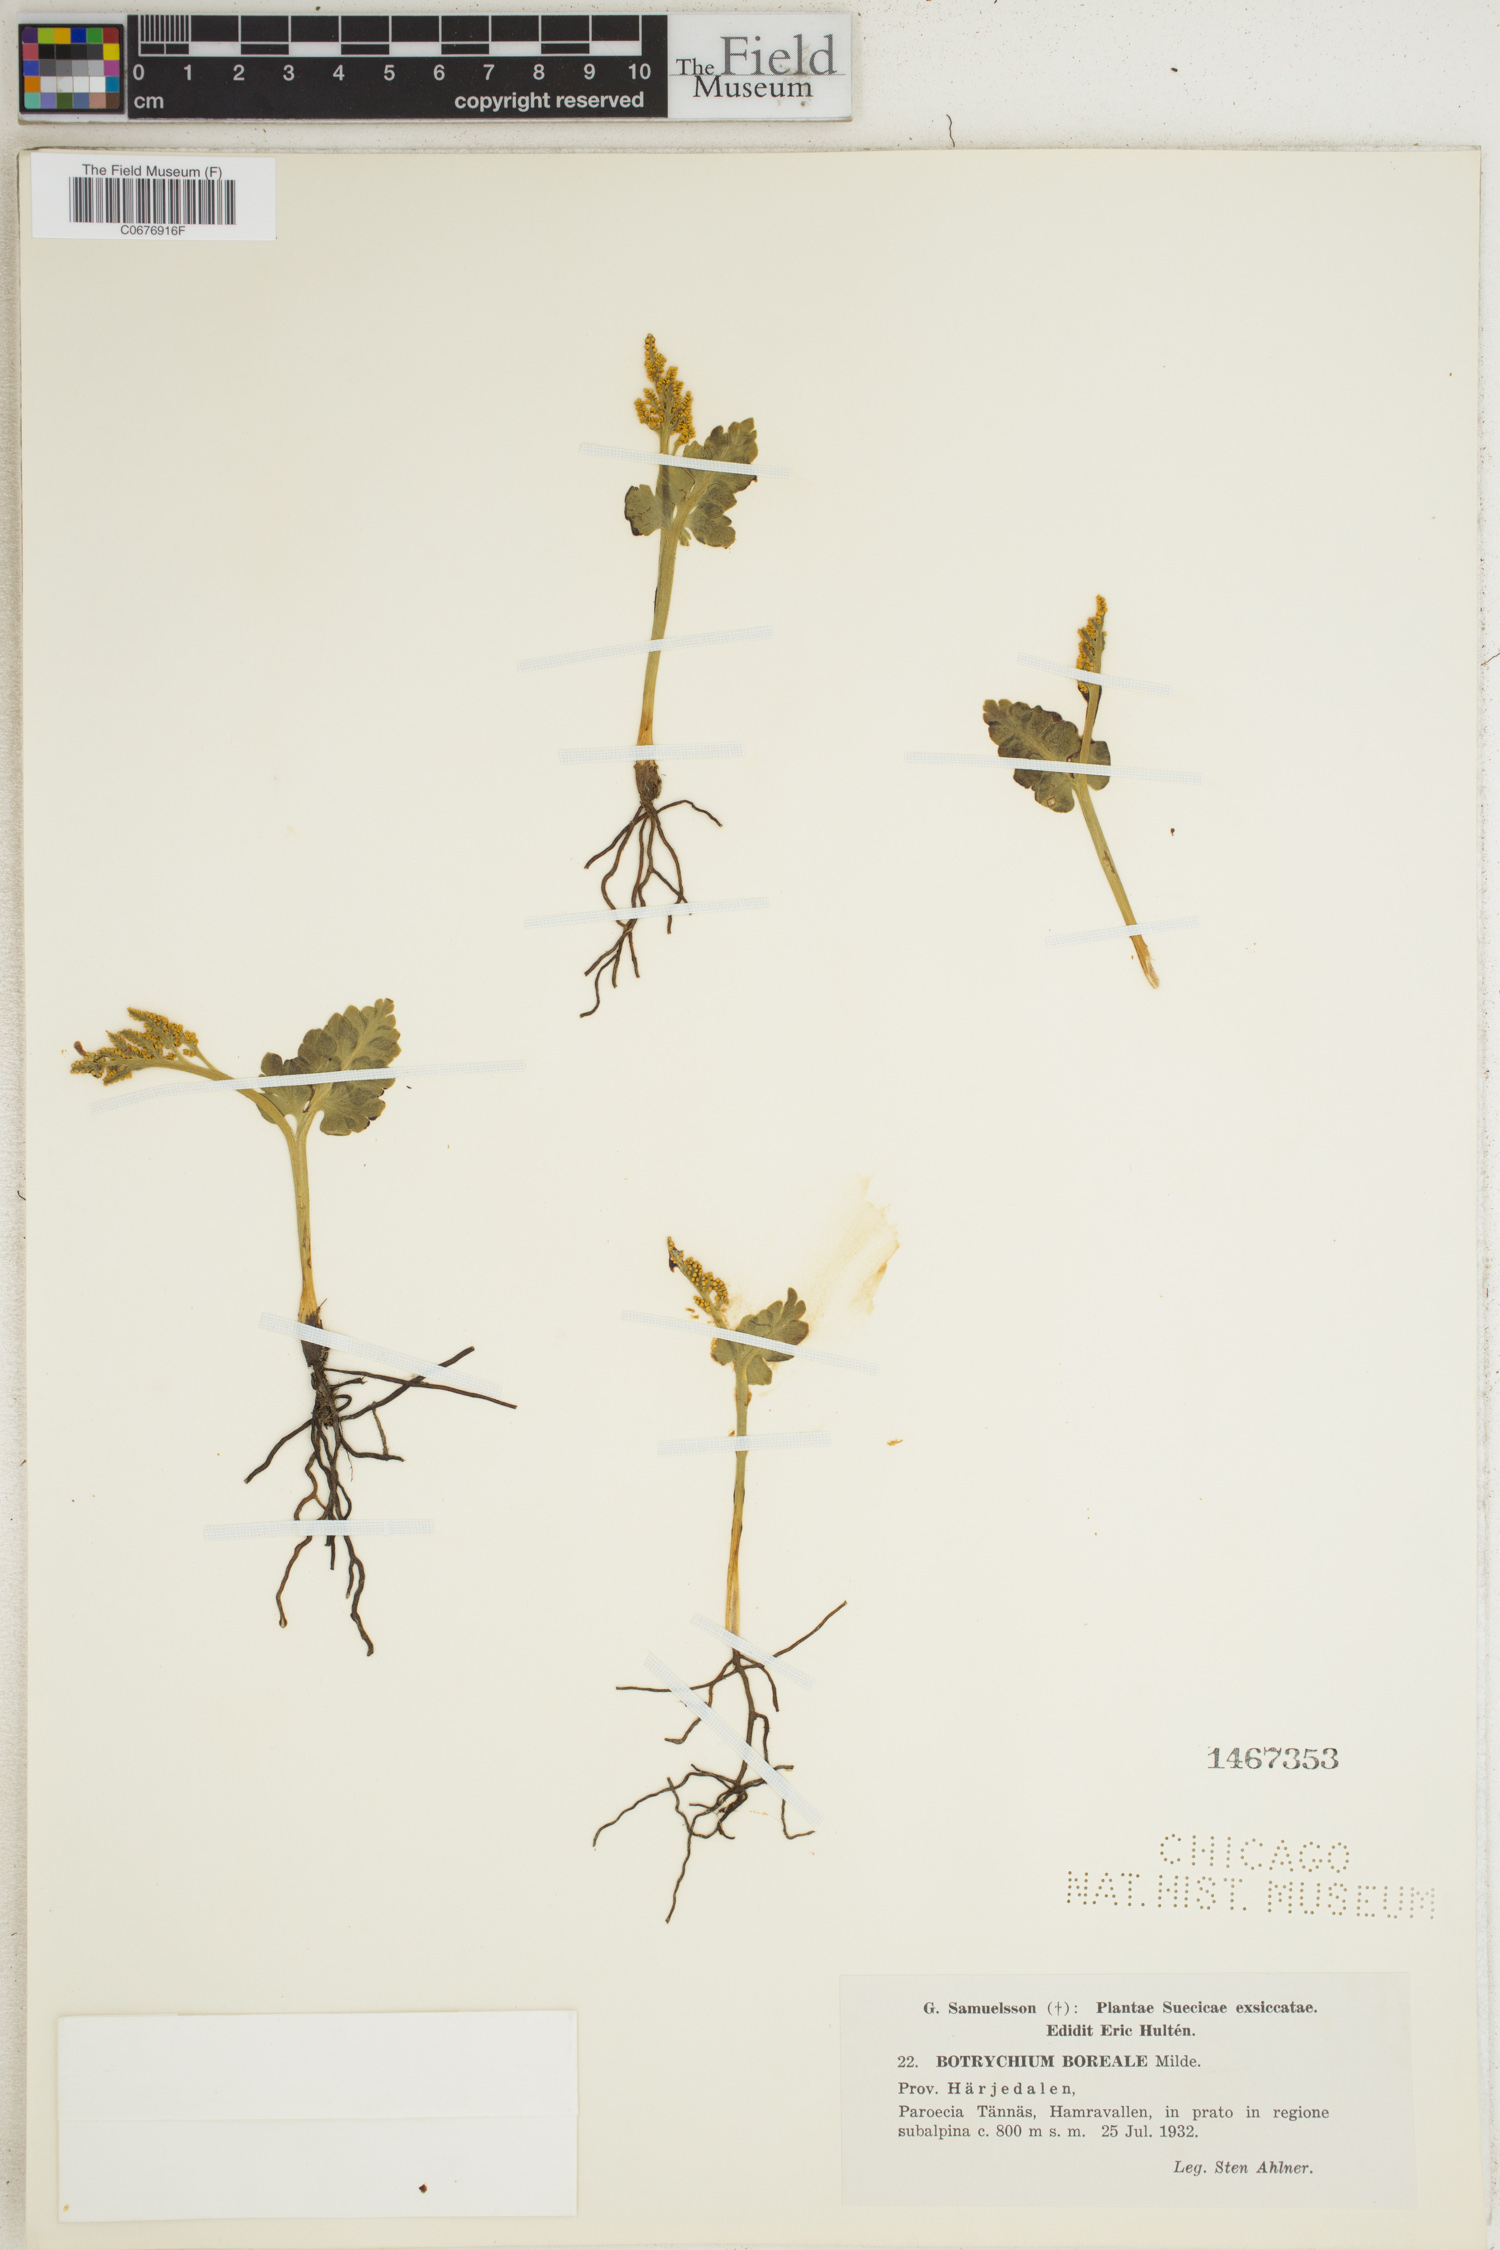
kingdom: Plantae
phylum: Tracheophyta
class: Polypodiopsida
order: Ophioglossales
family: Ophioglossaceae
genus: Botrychium
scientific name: Botrychium boreale
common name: Boreal moonwort
